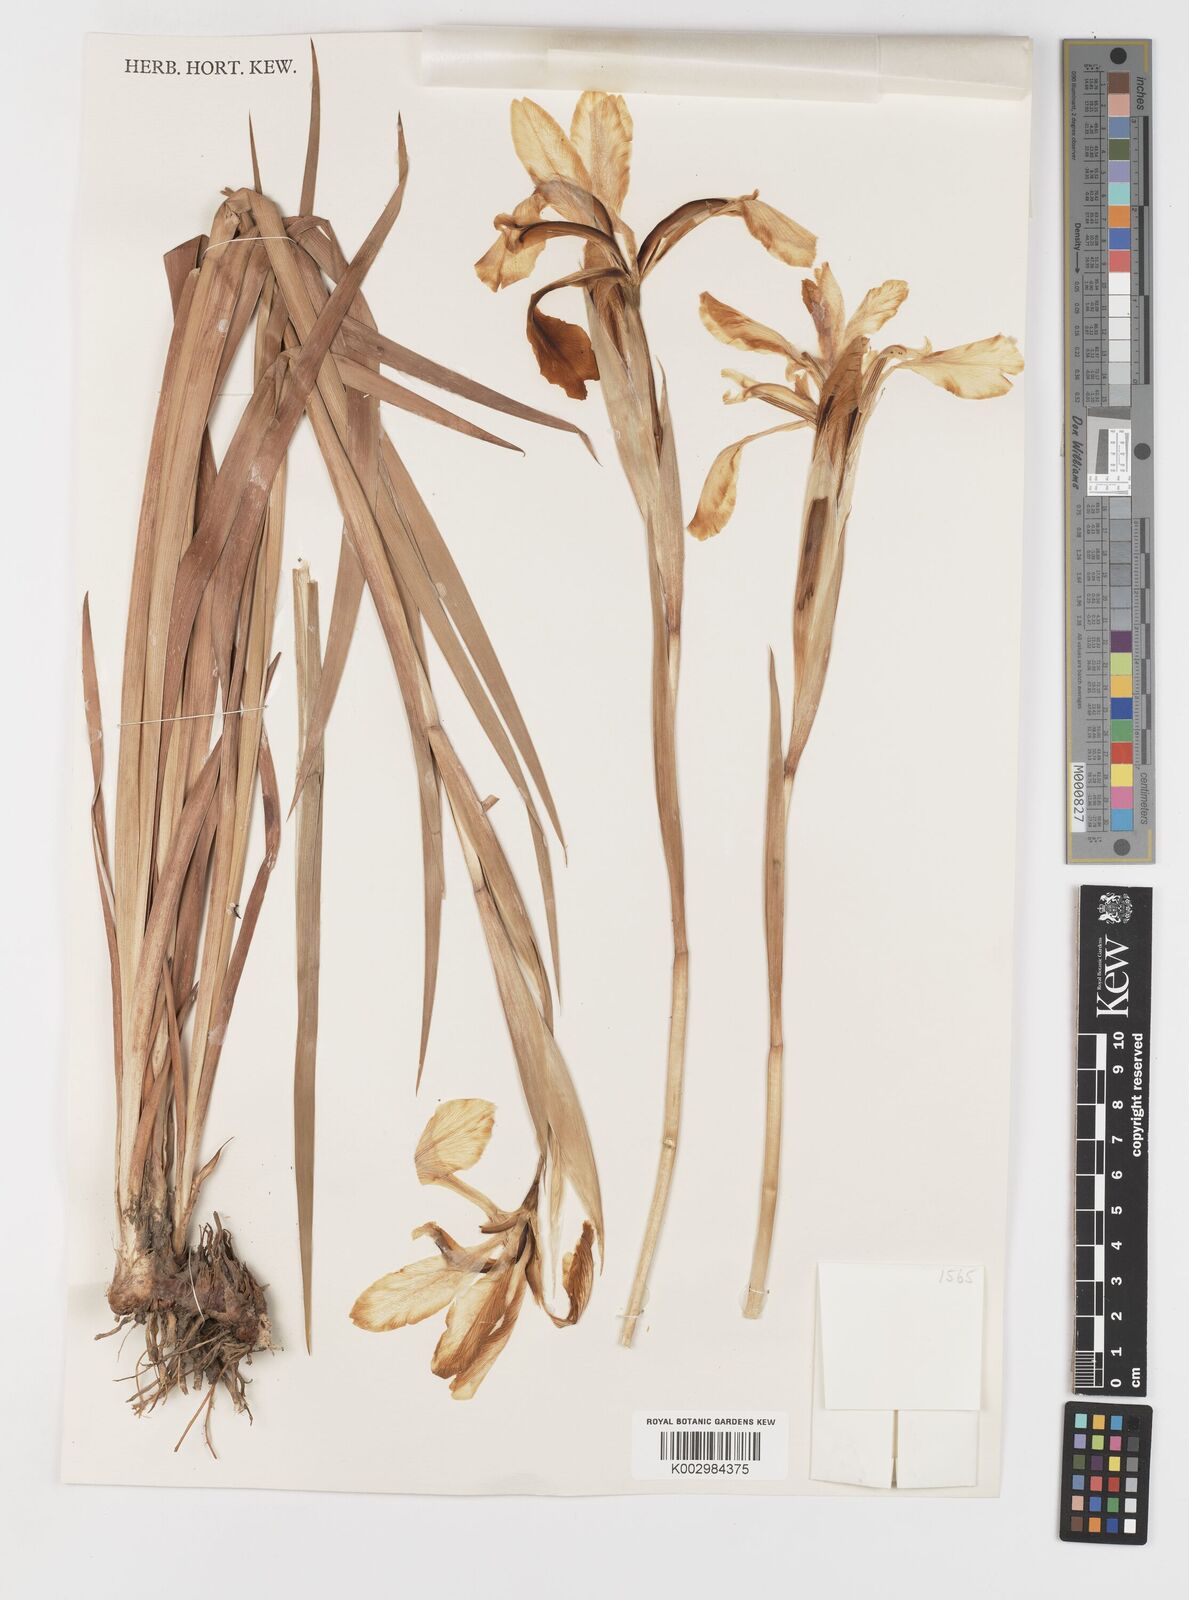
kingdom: Plantae
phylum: Tracheophyta
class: Liliopsida
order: Asparagales
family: Iridaceae
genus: Iris
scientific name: Iris orientalis
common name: Turkish iris
